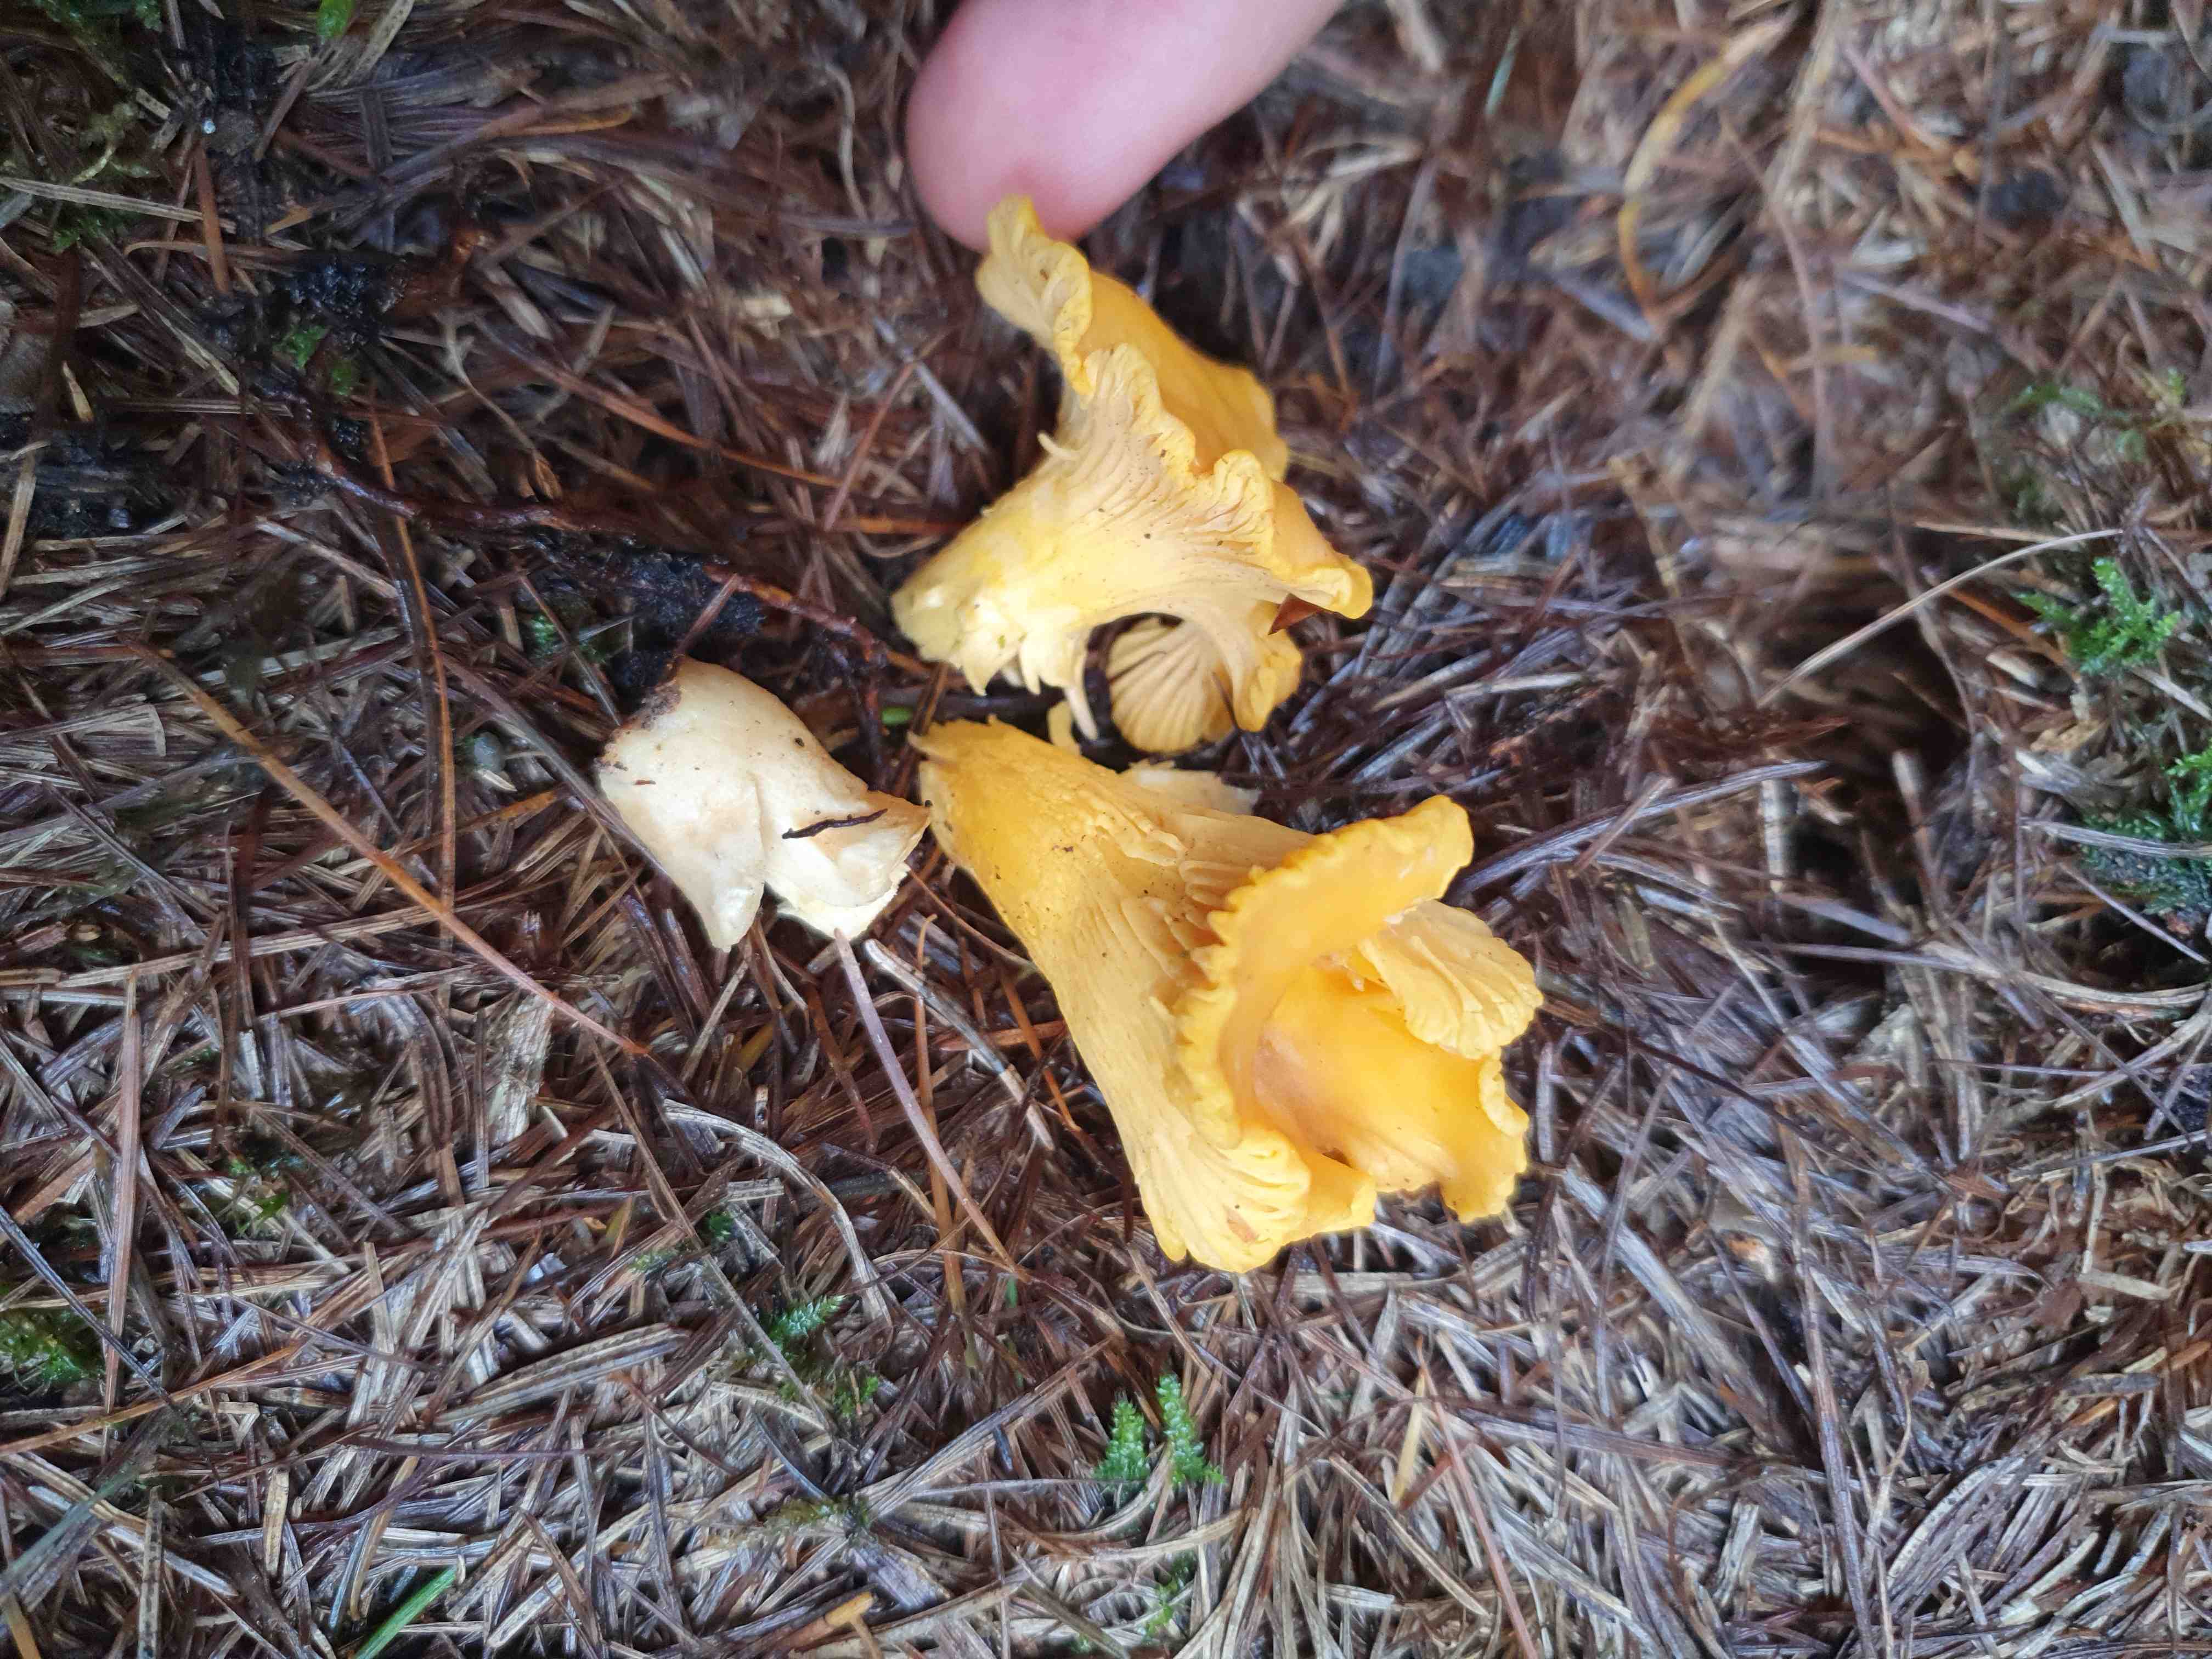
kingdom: Fungi
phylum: Basidiomycota
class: Agaricomycetes
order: Cantharellales
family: Hydnaceae
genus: Cantharellus
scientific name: Cantharellus cibarius
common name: almindelig kantarel
